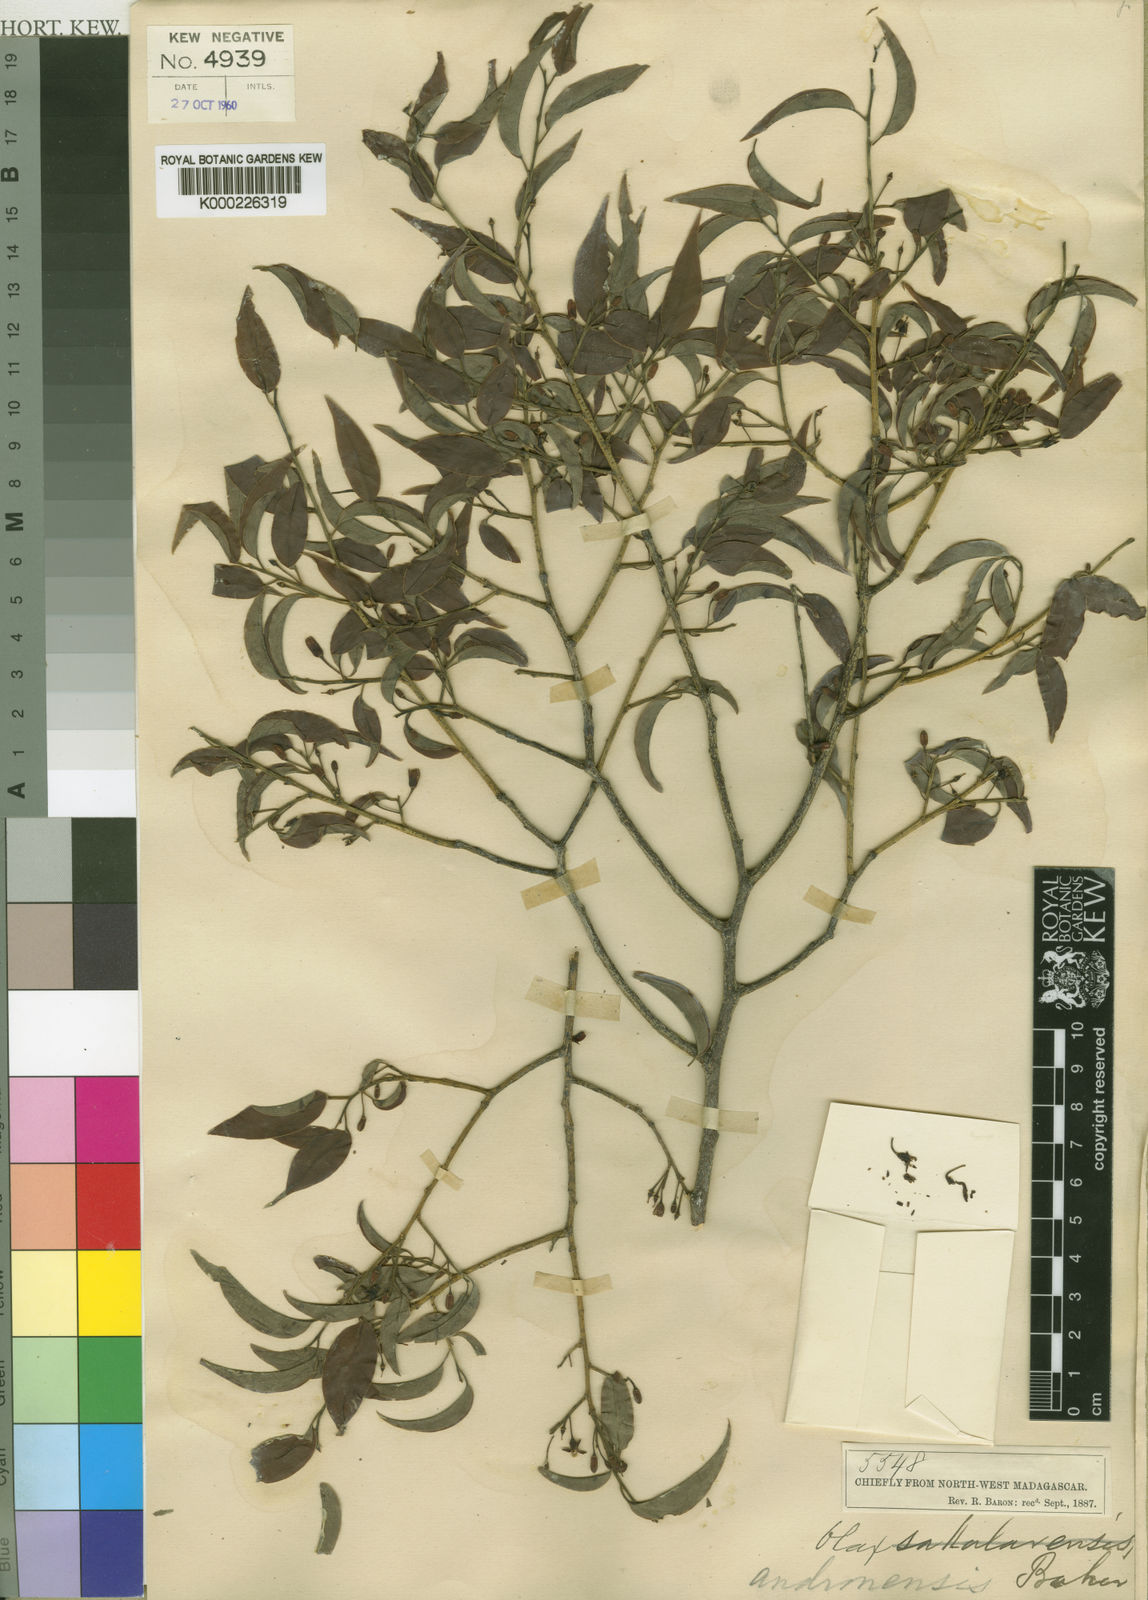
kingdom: Plantae
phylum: Tracheophyta
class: Magnoliopsida
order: Santalales
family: Olacaceae
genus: Olax
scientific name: Olax obtusifolia
